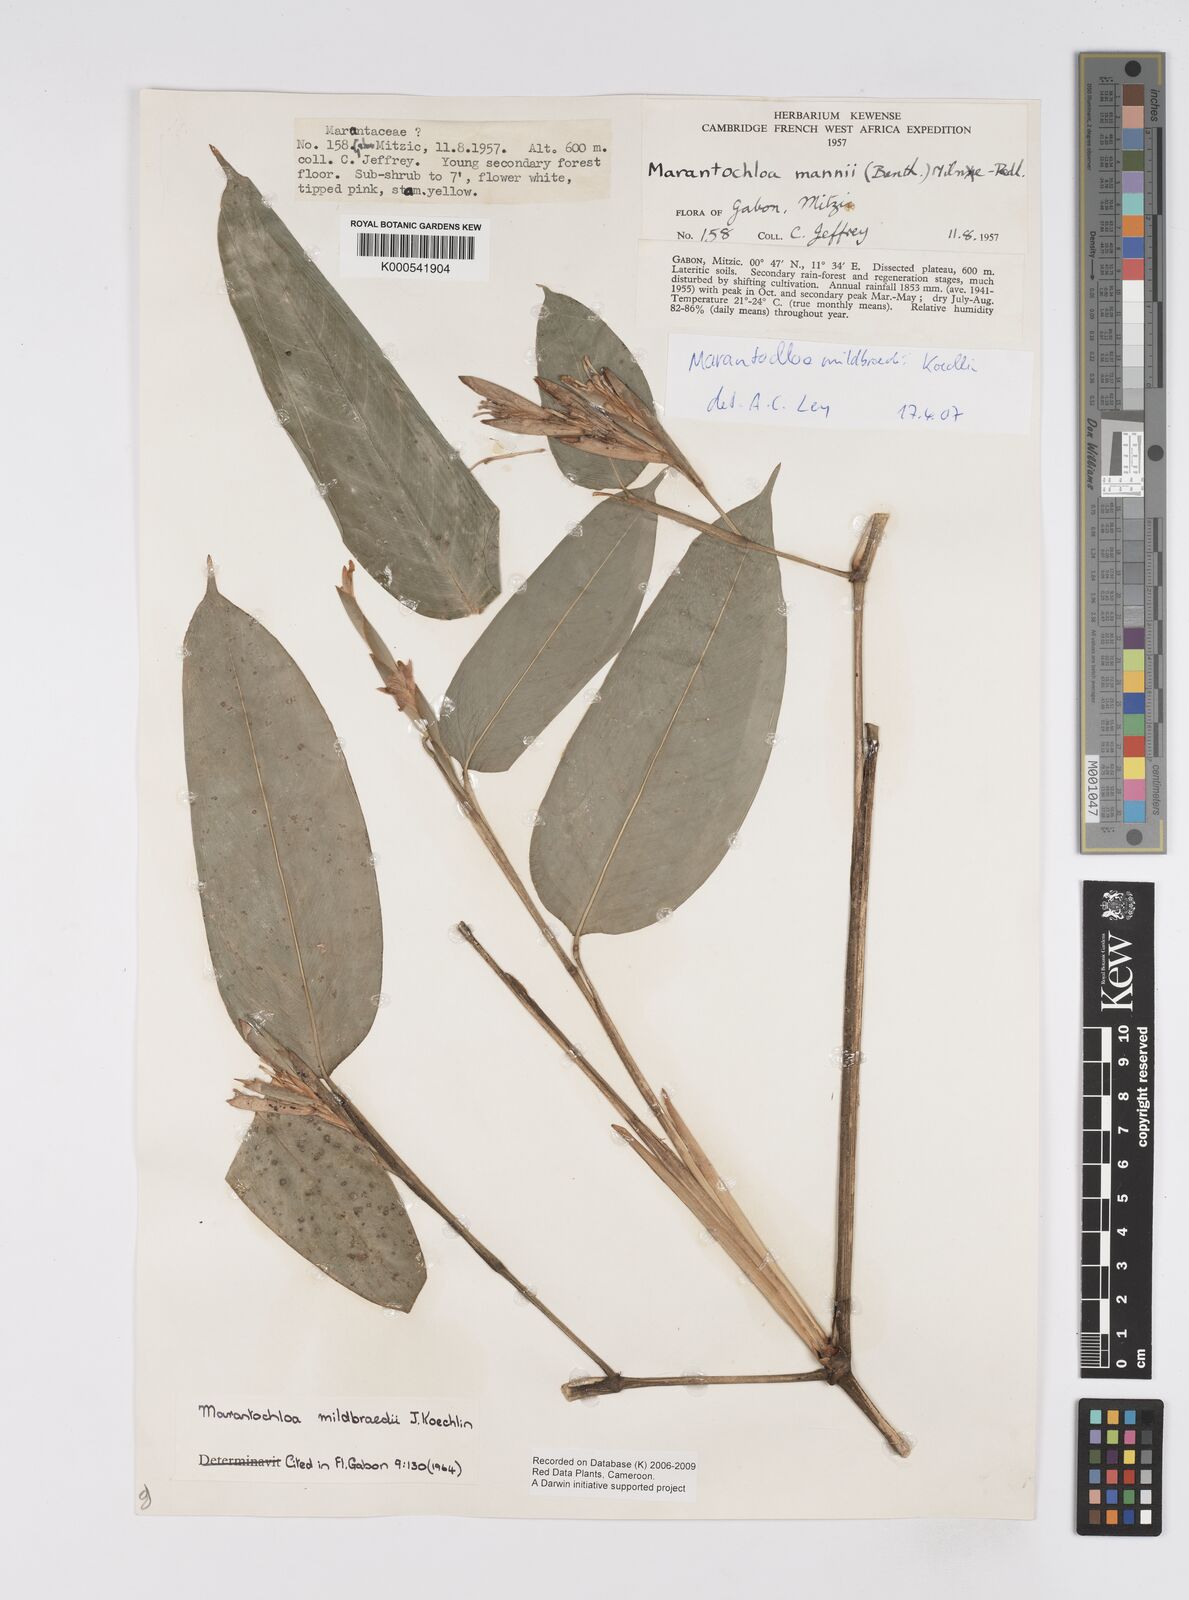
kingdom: Plantae
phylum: Tracheophyta
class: Liliopsida
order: Zingiberales
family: Marantaceae
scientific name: Marantaceae
